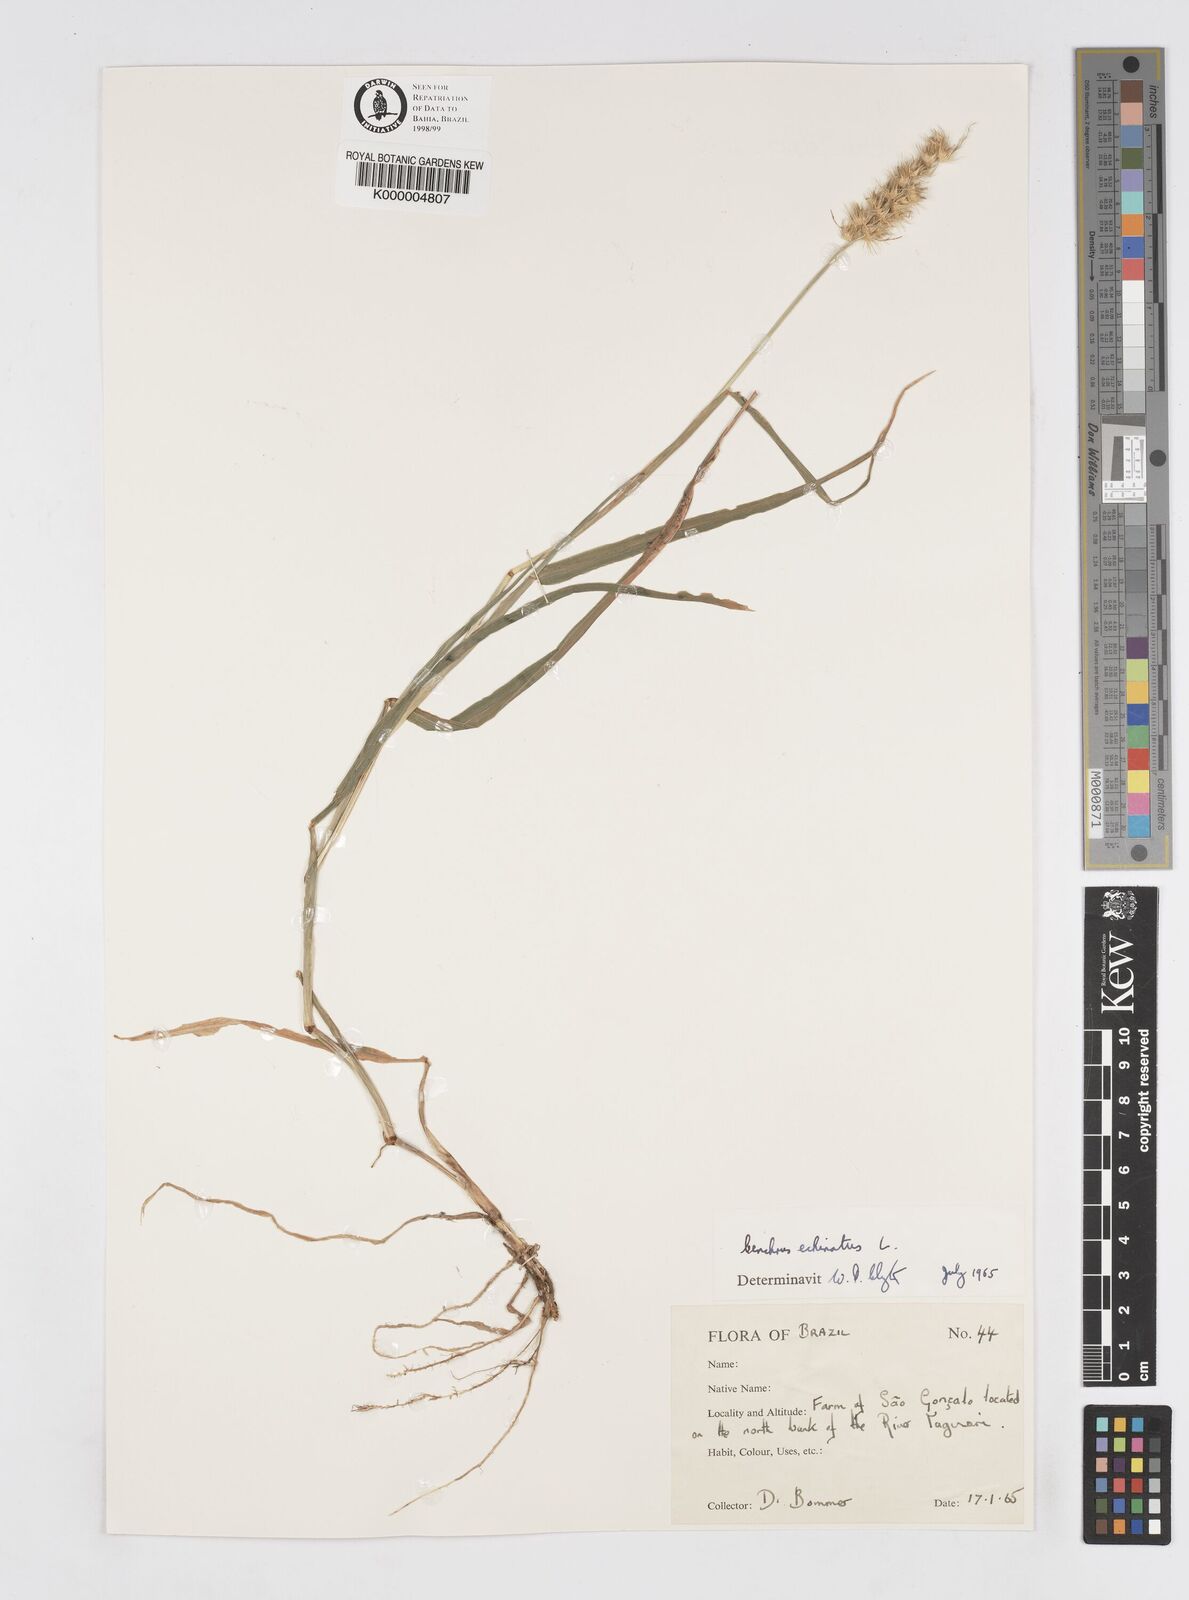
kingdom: Plantae
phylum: Tracheophyta
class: Liliopsida
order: Poales
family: Poaceae
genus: Cenchrus
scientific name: Cenchrus echinatus
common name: Southern sandbur
